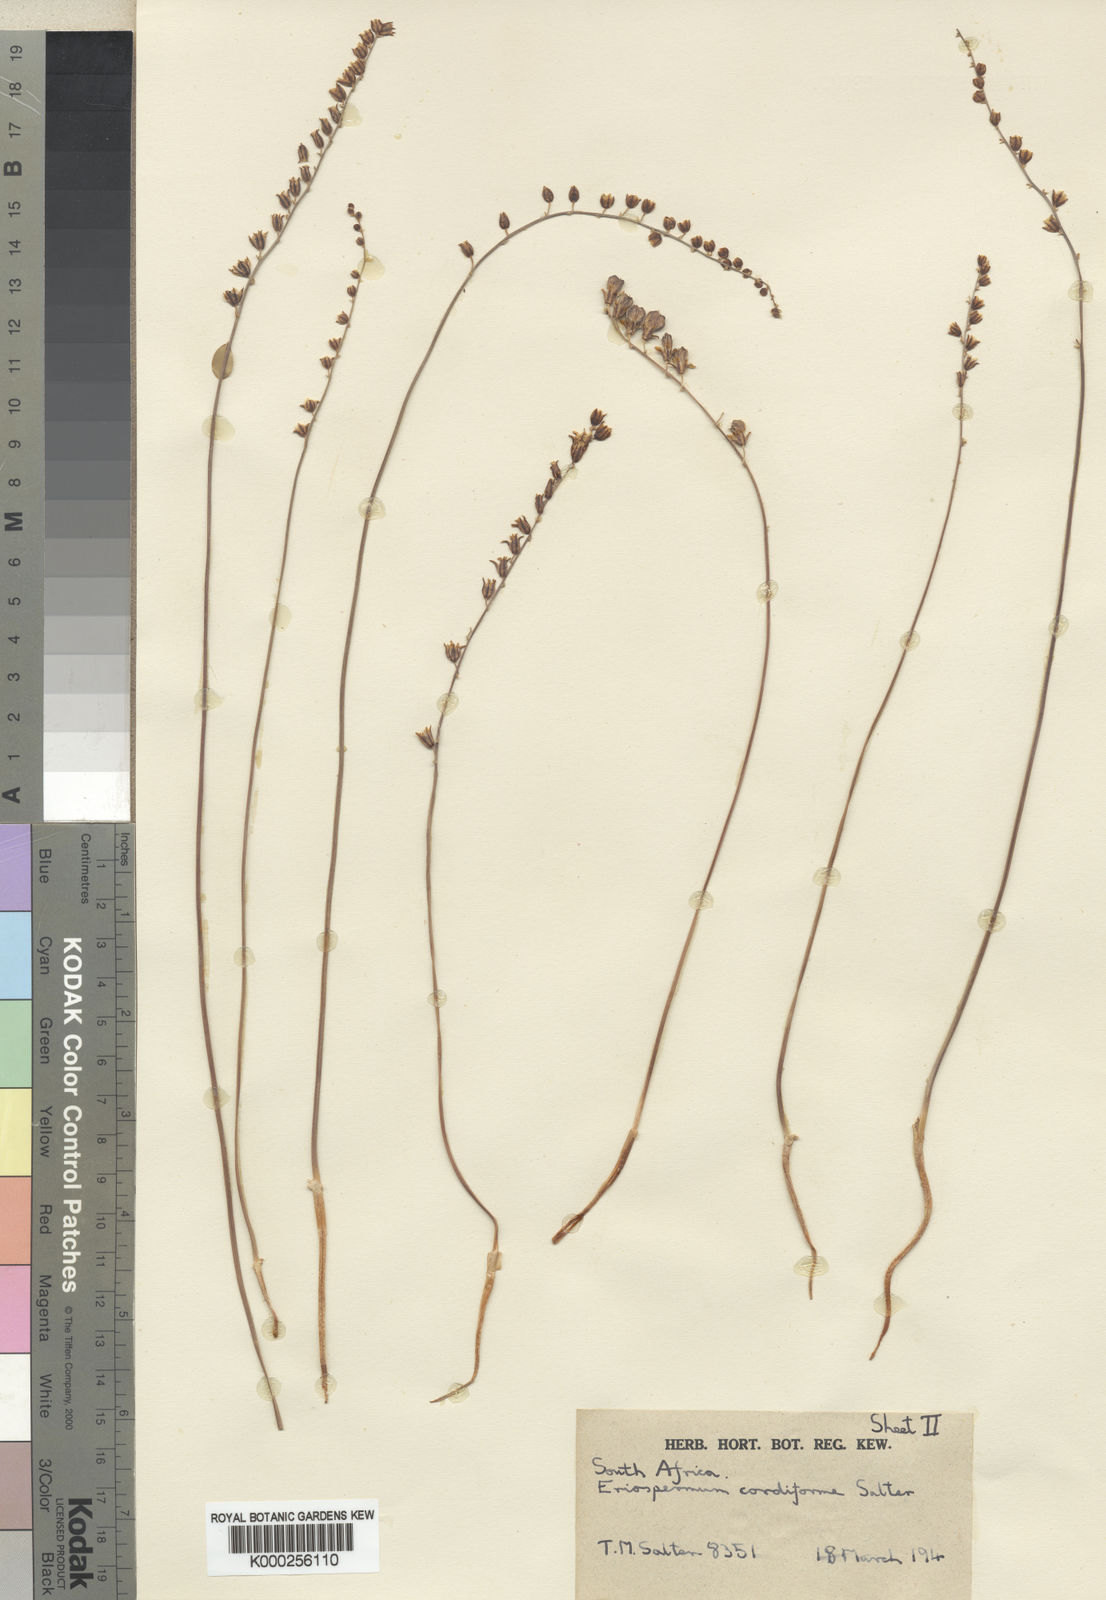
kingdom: Plantae
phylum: Tracheophyta
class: Liliopsida
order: Asparagales
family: Asparagaceae
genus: Eriospermum
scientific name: Eriospermum cordiforme
